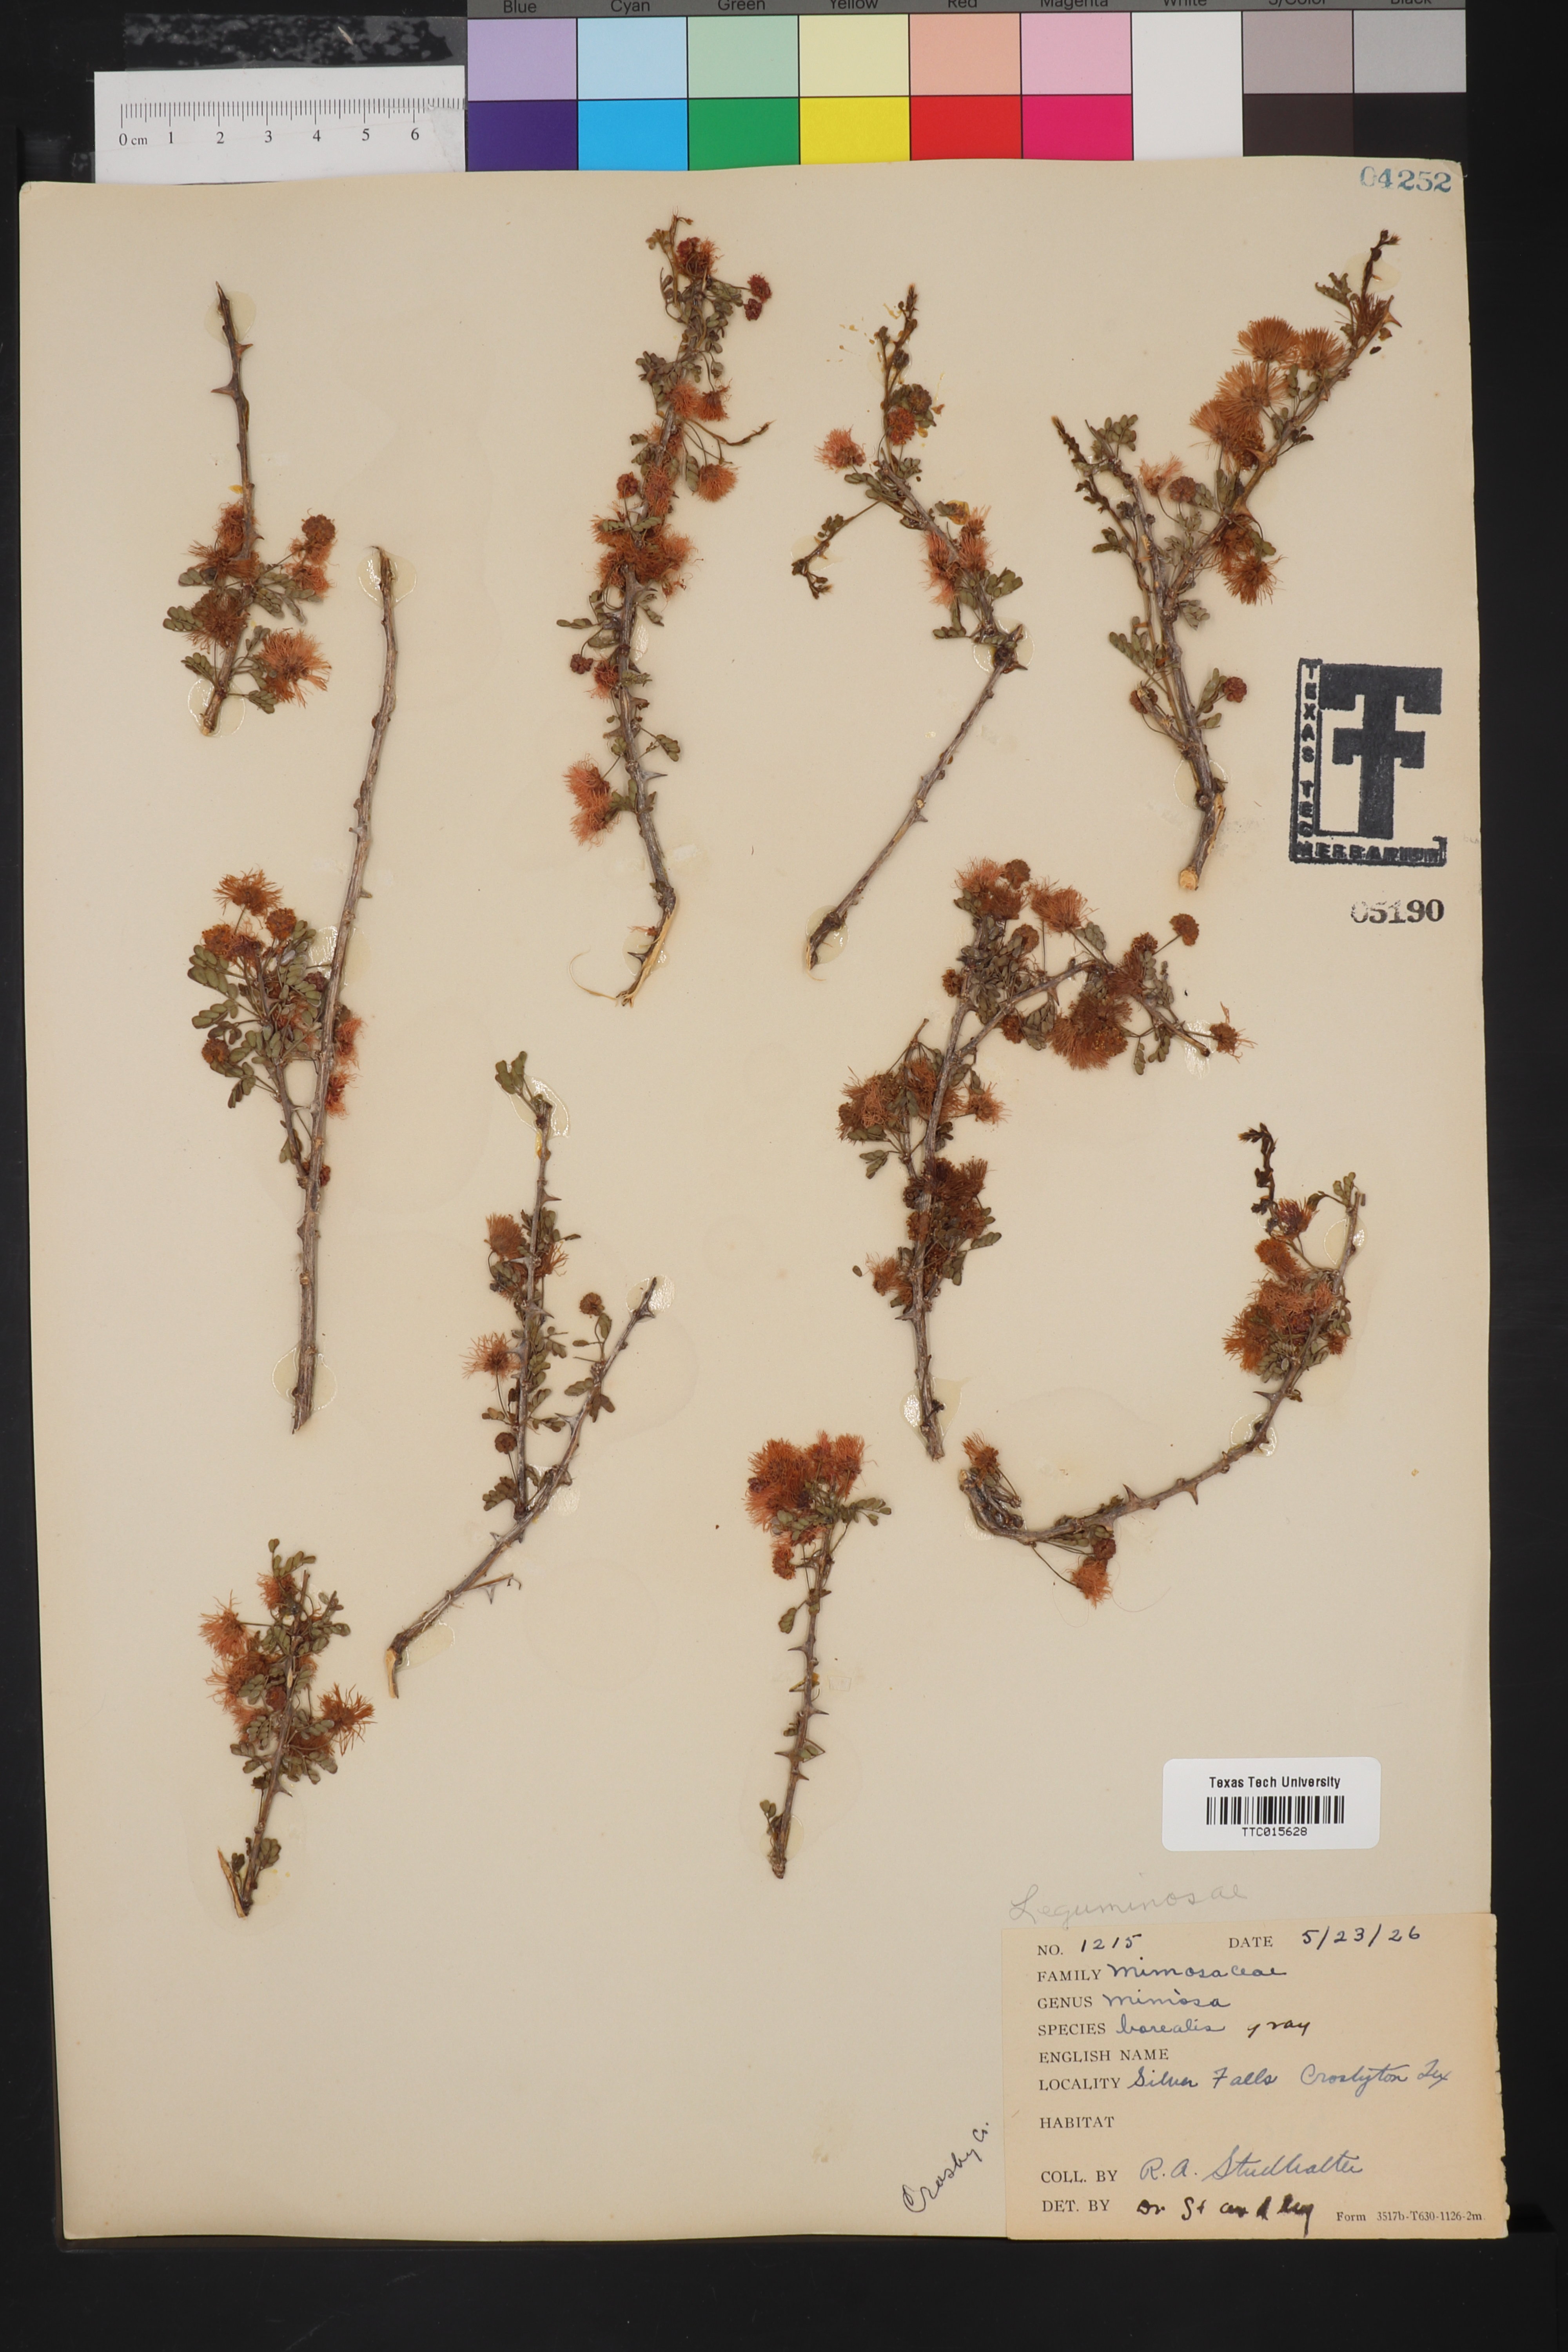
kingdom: Plantae
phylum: Tracheophyta
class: Magnoliopsida
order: Fabales
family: Fabaceae
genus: Mimosa
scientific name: Mimosa borealis
